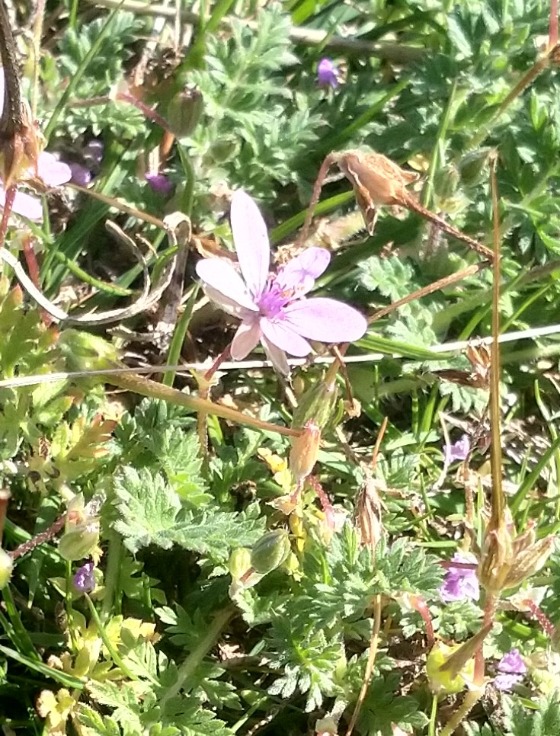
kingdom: Plantae
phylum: Tracheophyta
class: Magnoliopsida
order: Geraniales
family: Geraniaceae
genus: Erodium
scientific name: Erodium cicutarium
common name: Hejrenæb
